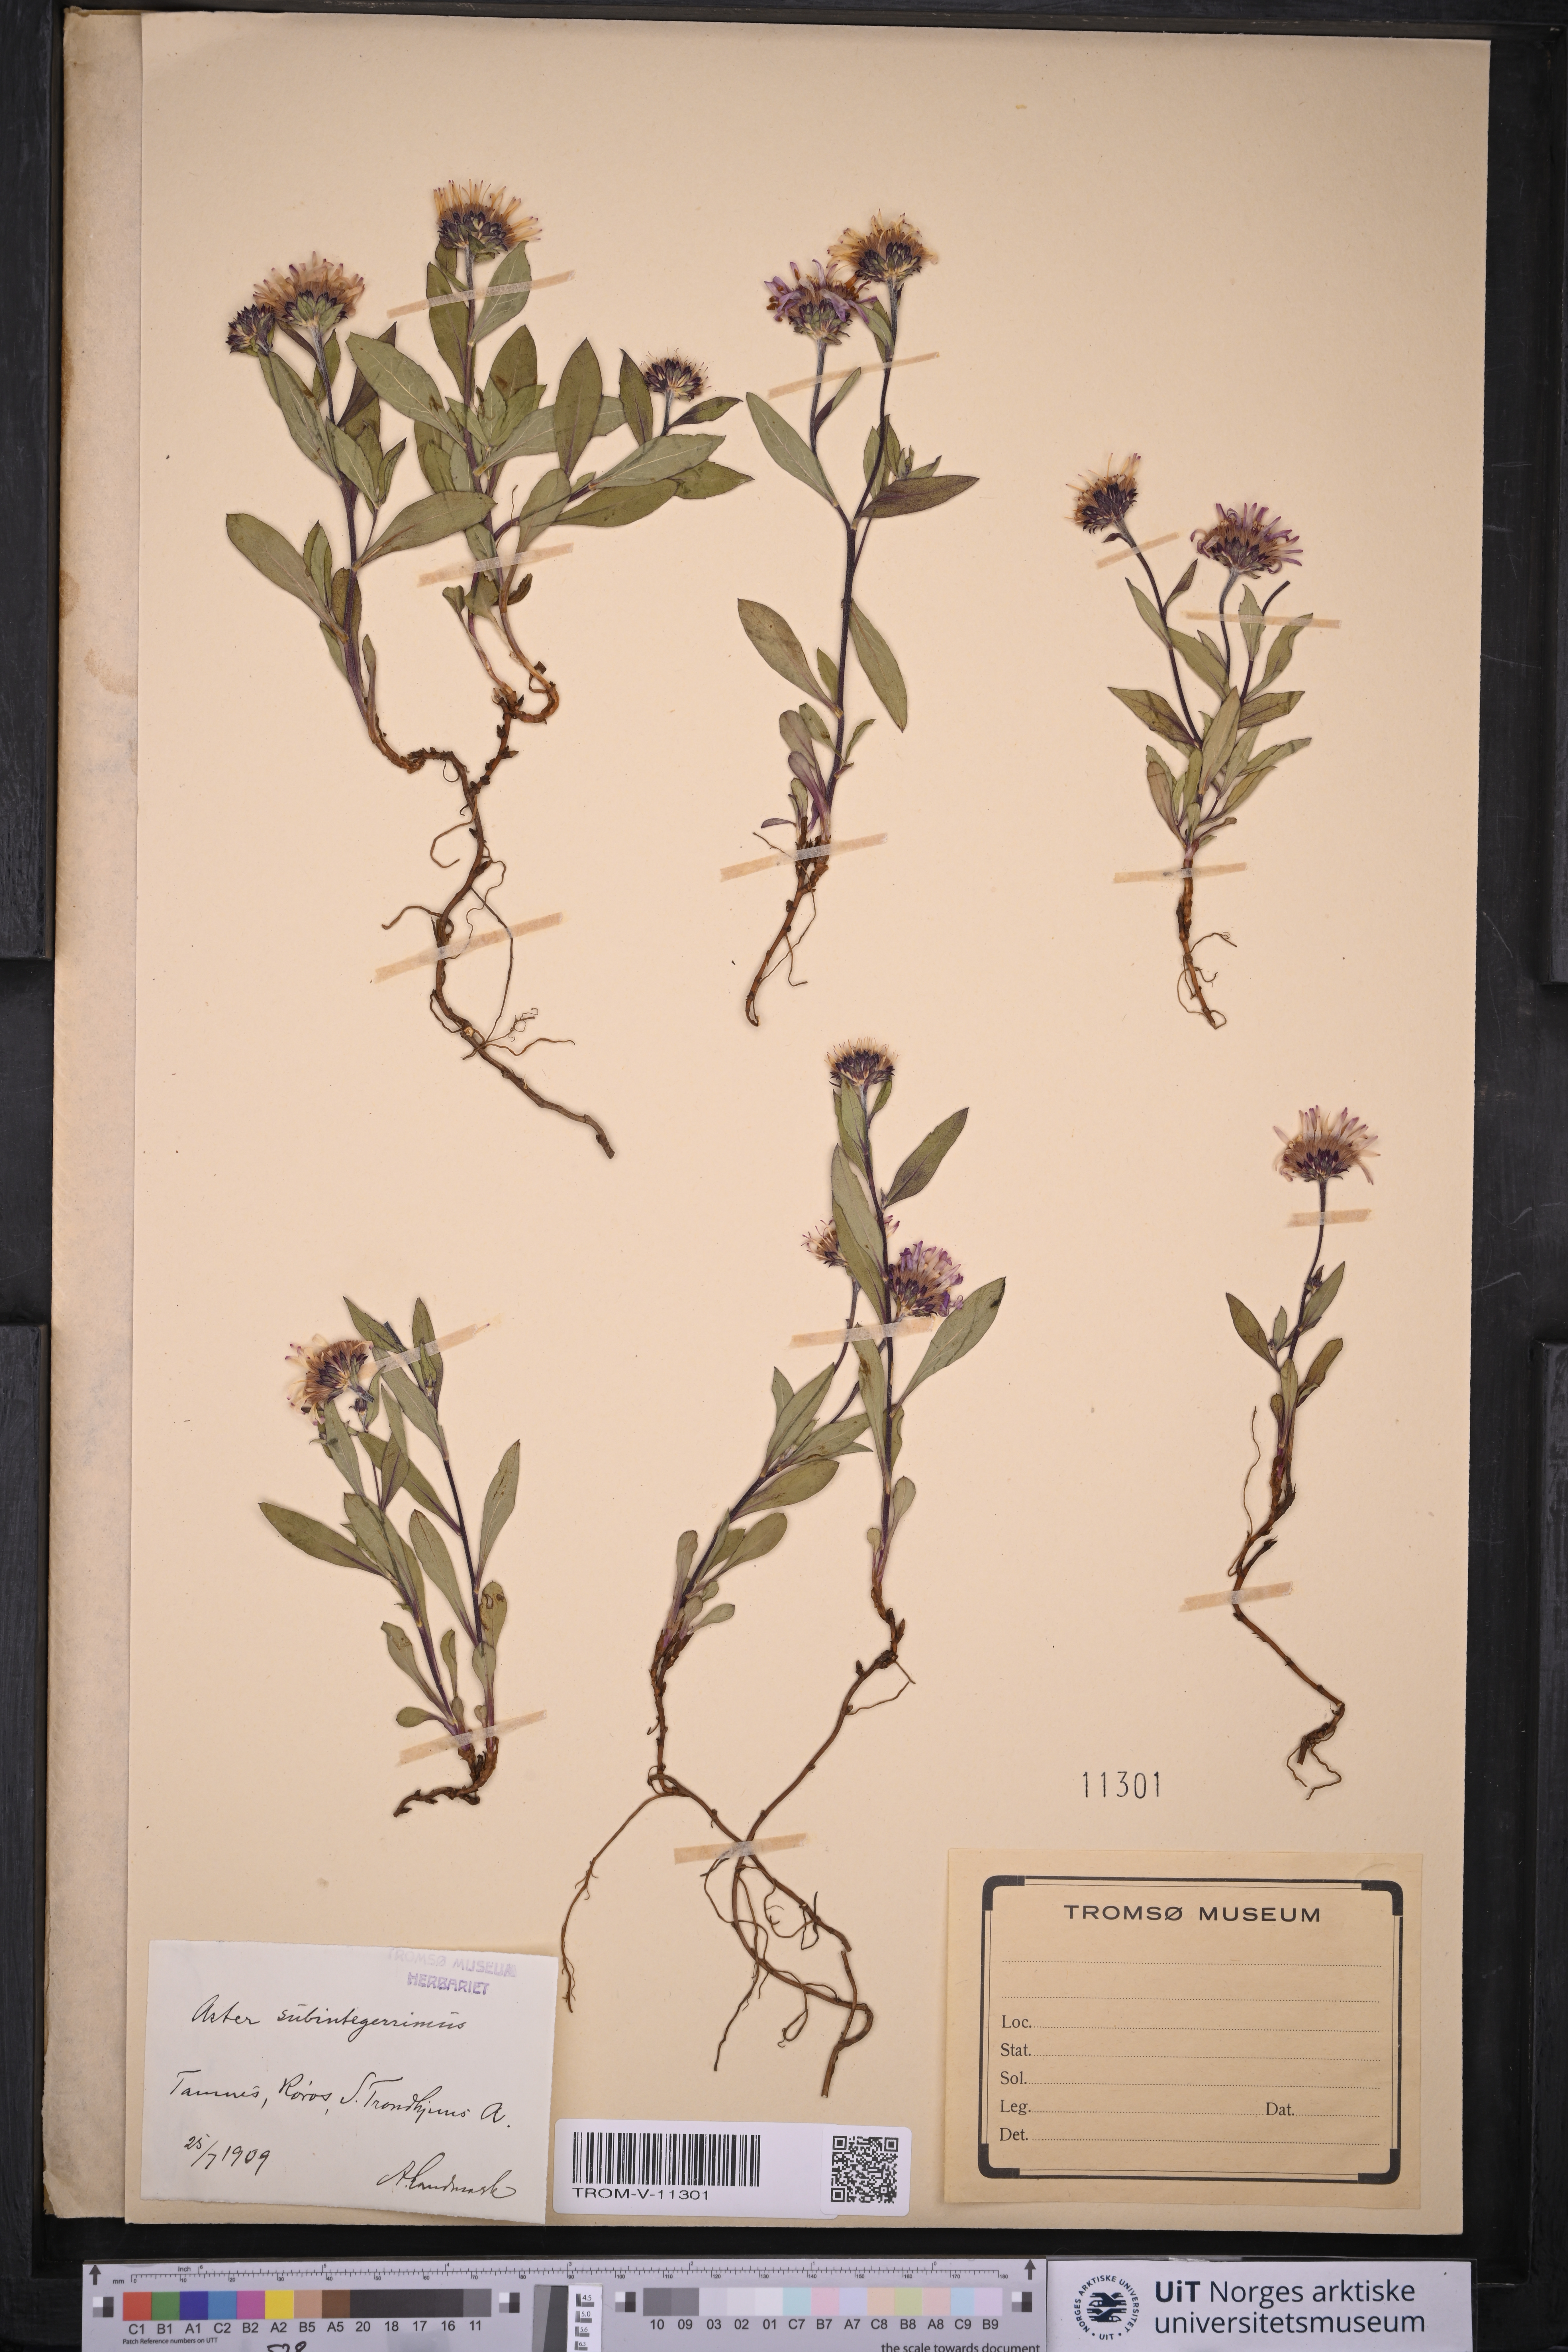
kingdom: Plantae
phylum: Tracheophyta
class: Magnoliopsida
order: Asterales
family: Asteraceae
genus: Eurybia
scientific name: Eurybia sibirica
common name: Arctic aster
